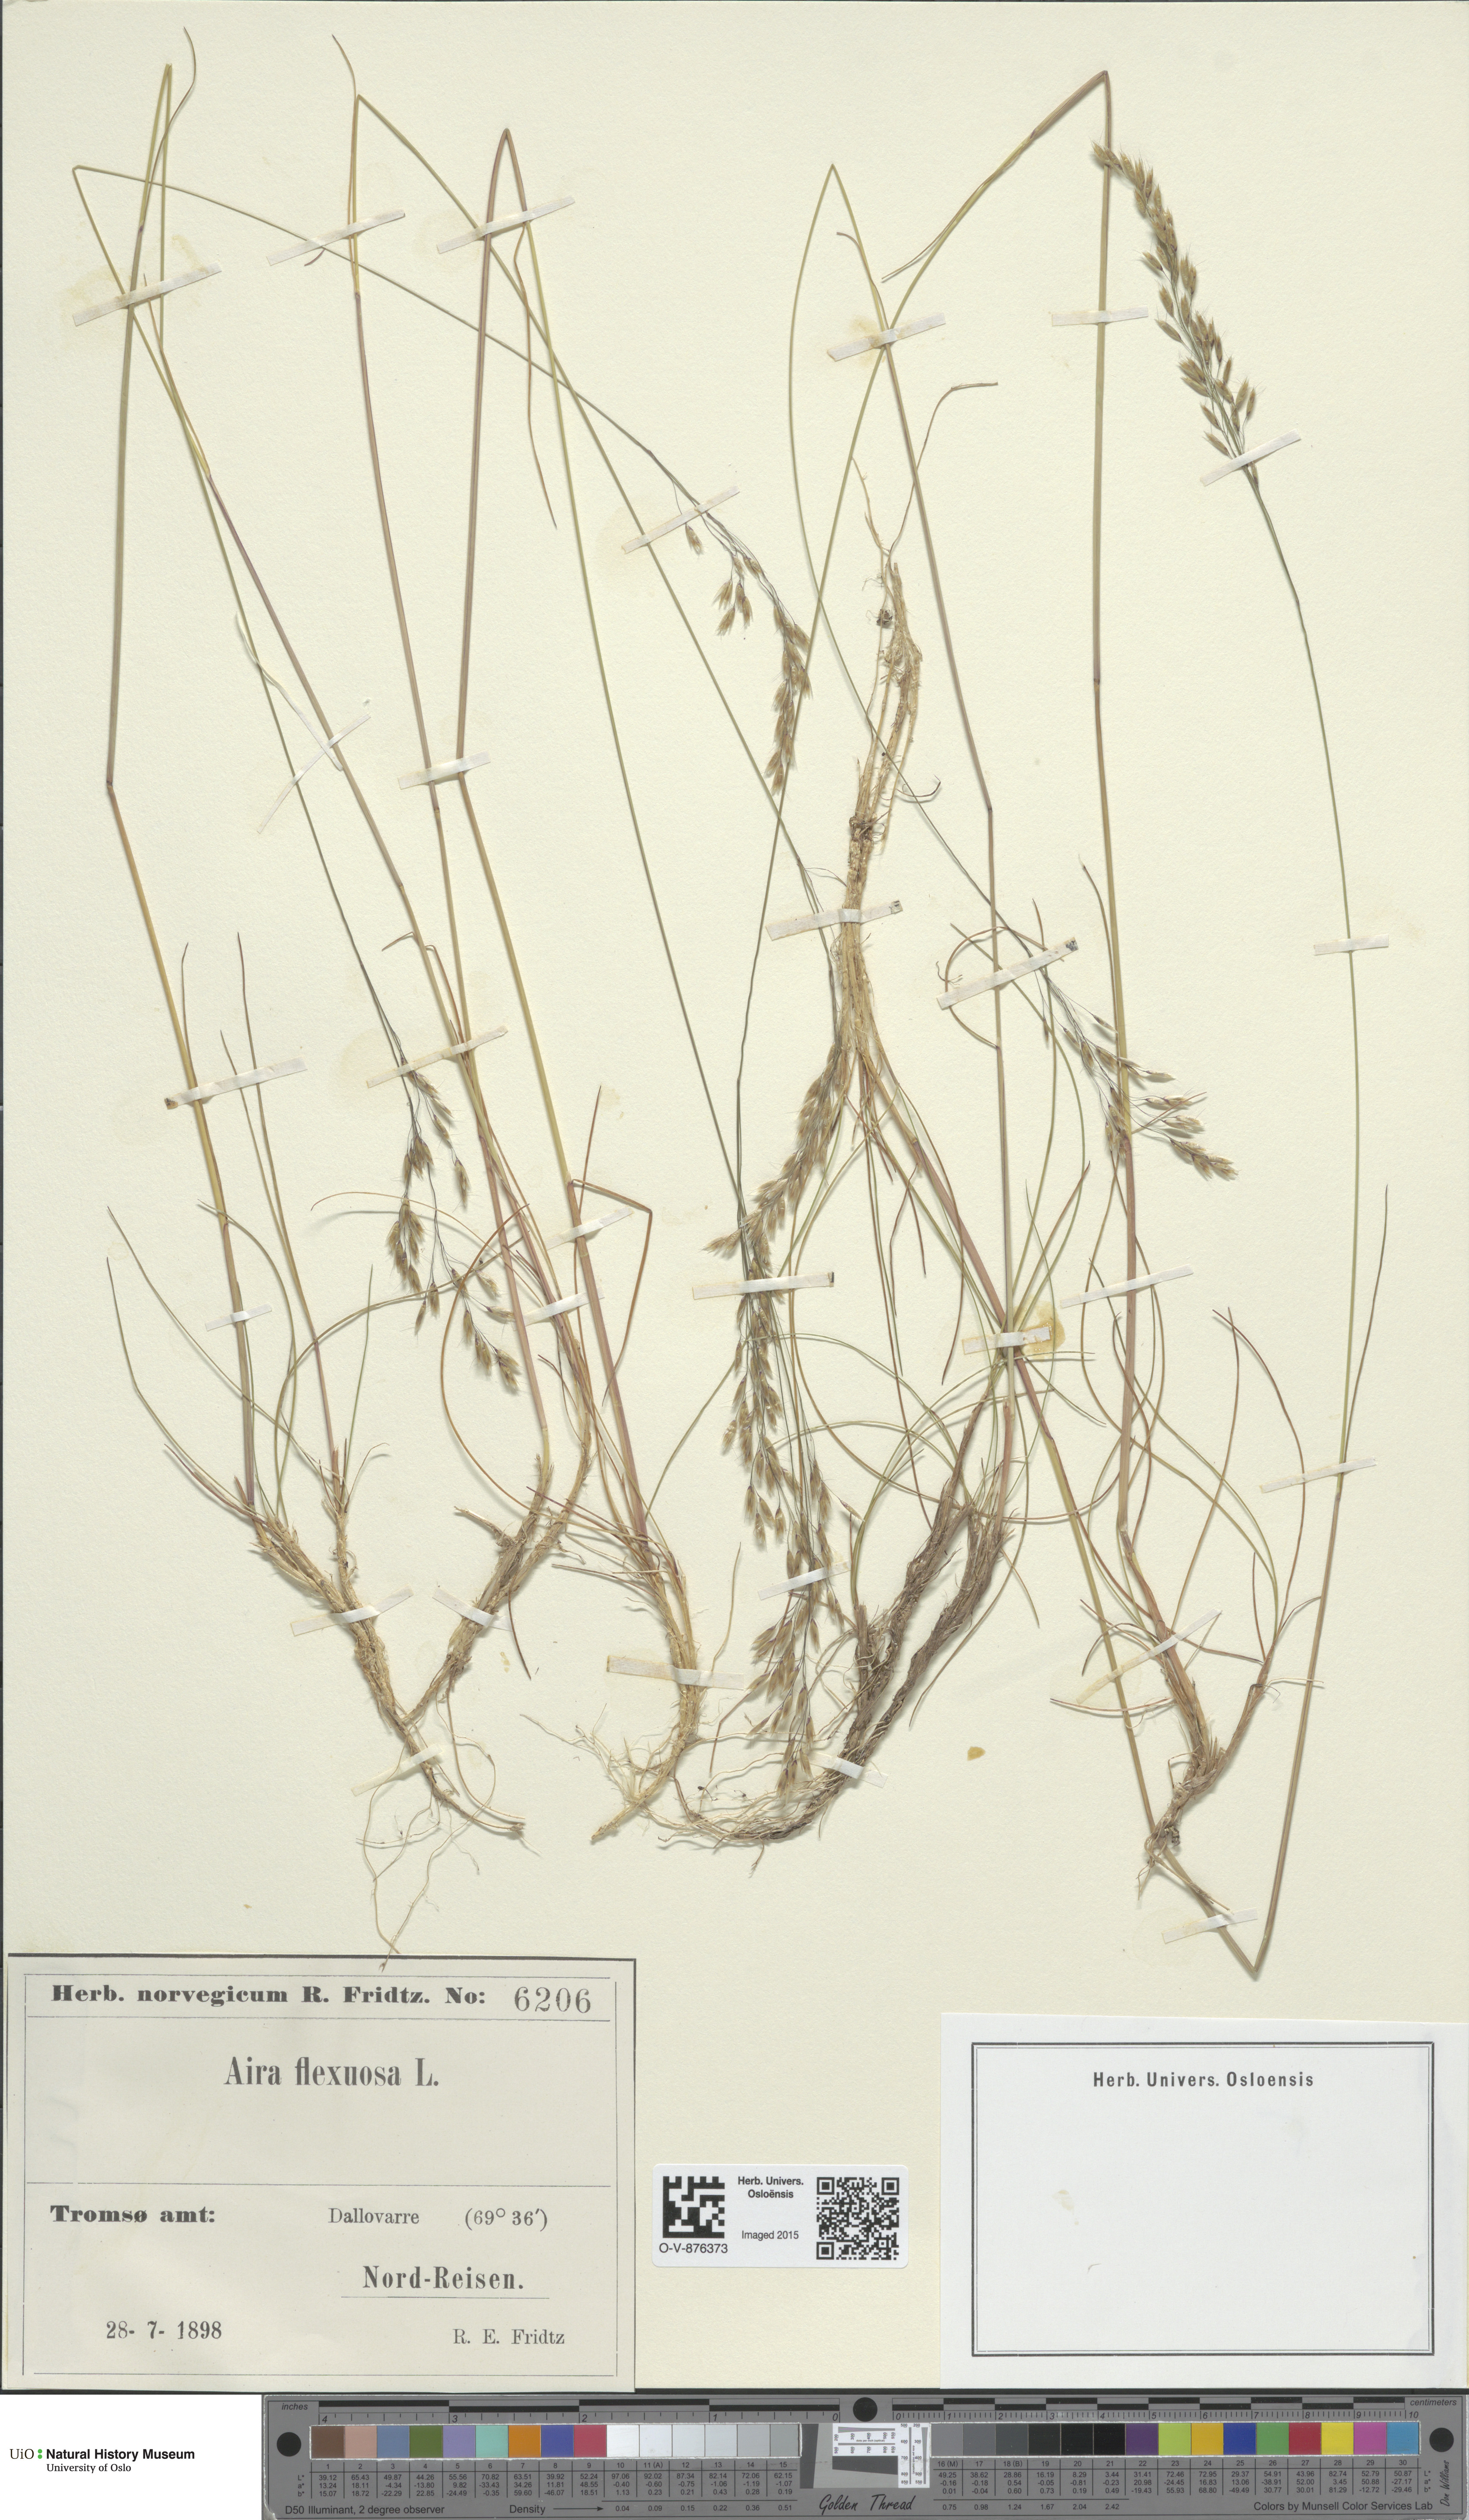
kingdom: Plantae
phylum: Tracheophyta
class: Liliopsida
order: Poales
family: Poaceae
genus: Avenella
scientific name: Avenella flexuosa
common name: Wavy hairgrass
